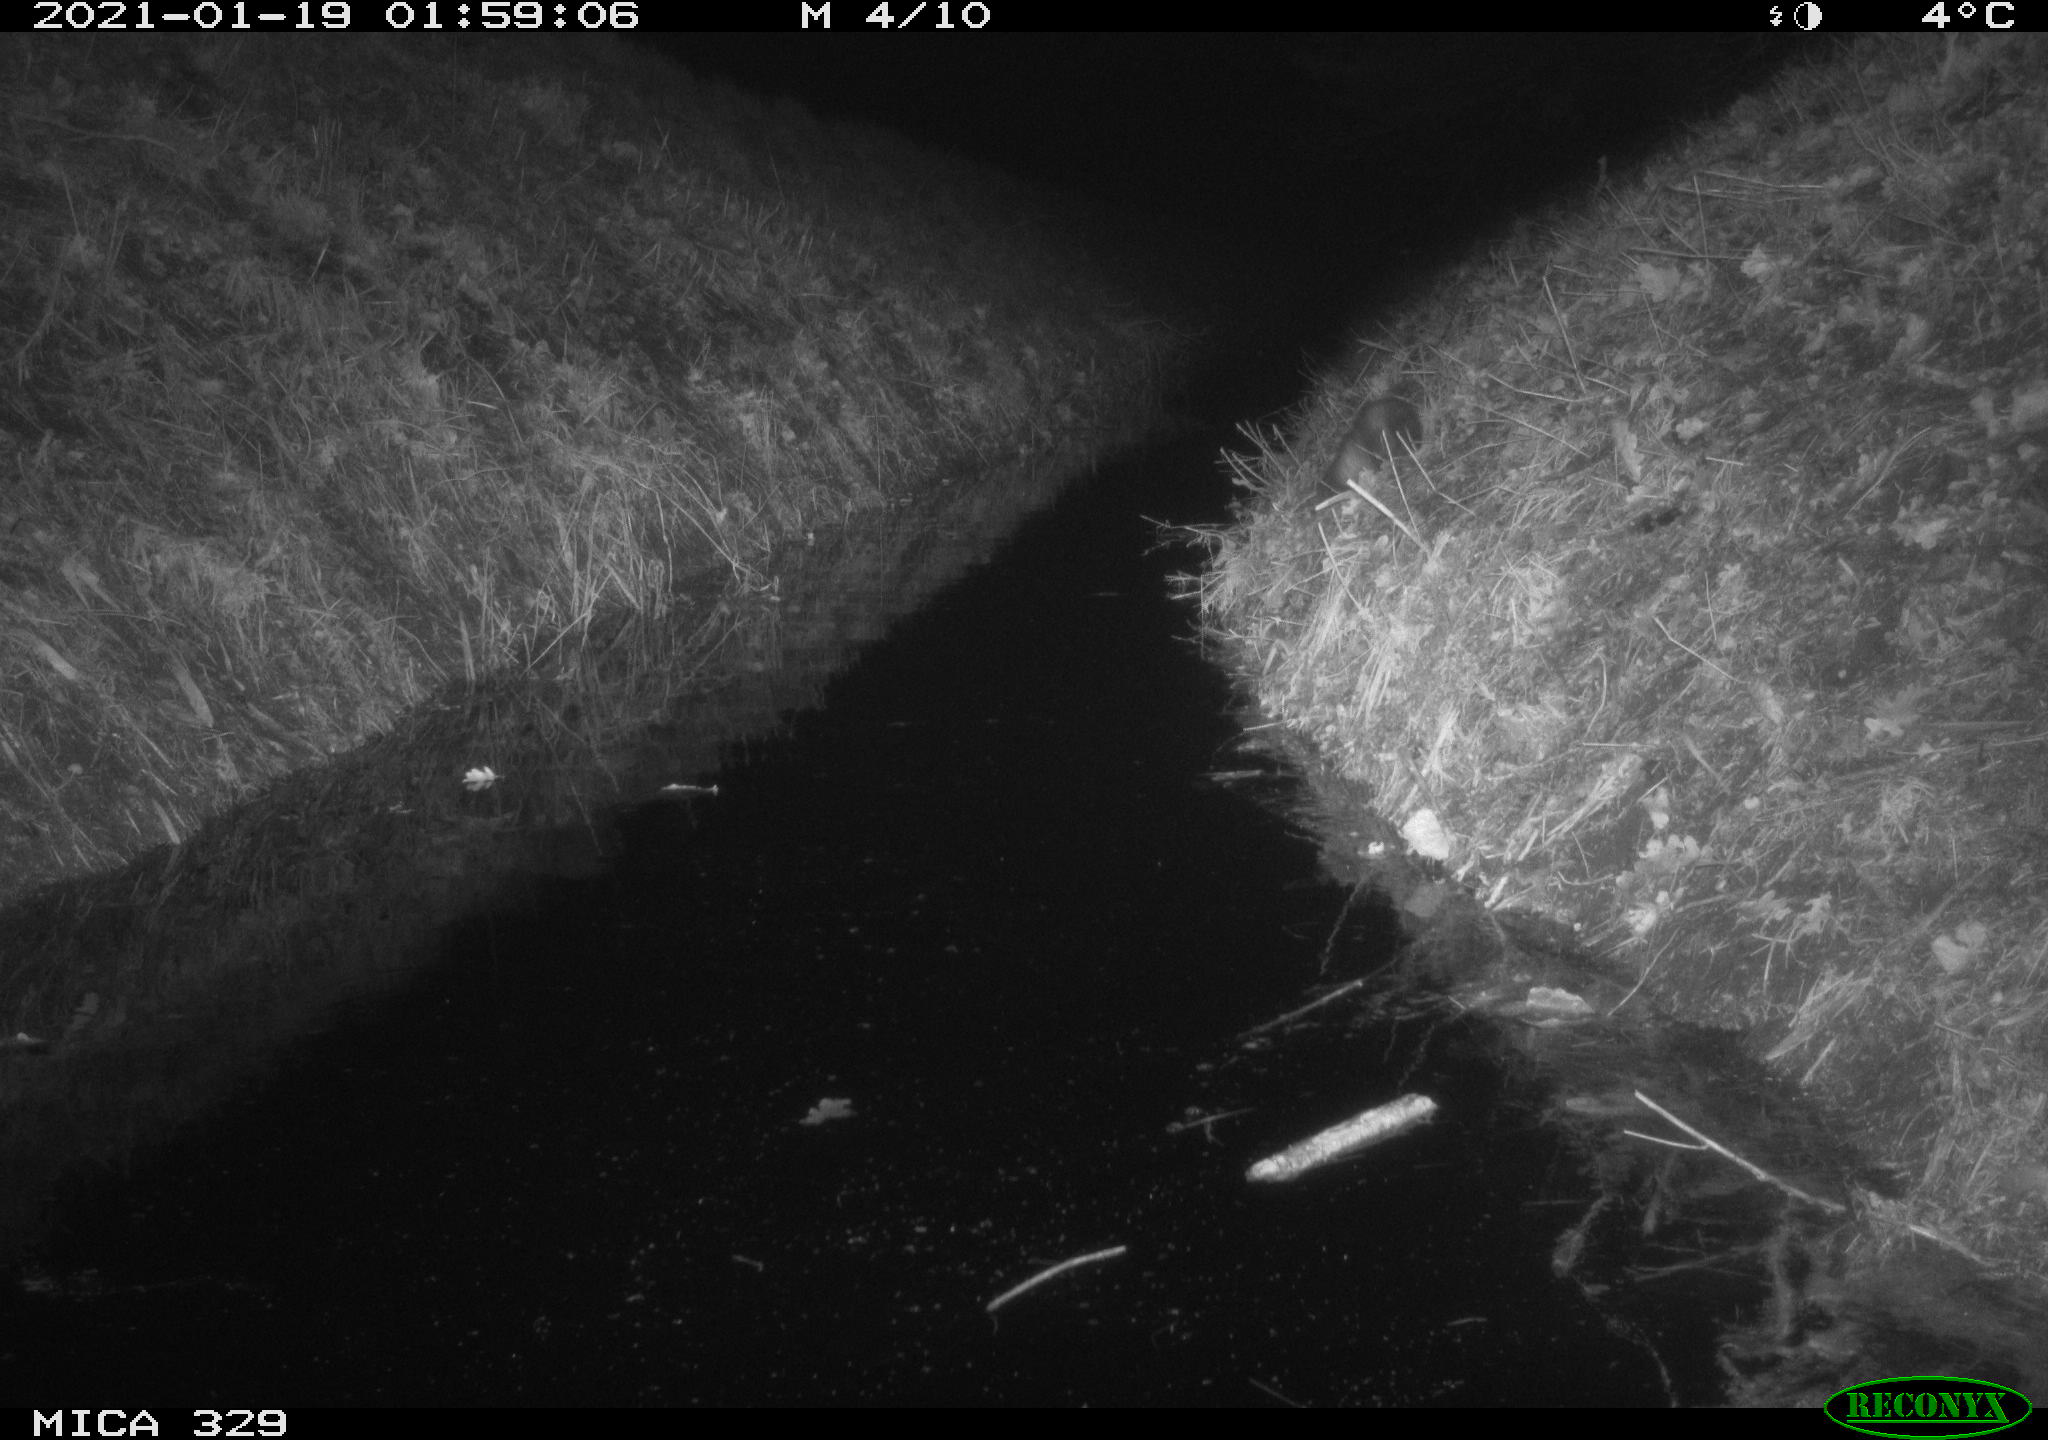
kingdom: Animalia
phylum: Chordata
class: Mammalia
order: Carnivora
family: Mustelidae
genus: Mustela
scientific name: Mustela putorius
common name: European polecat
